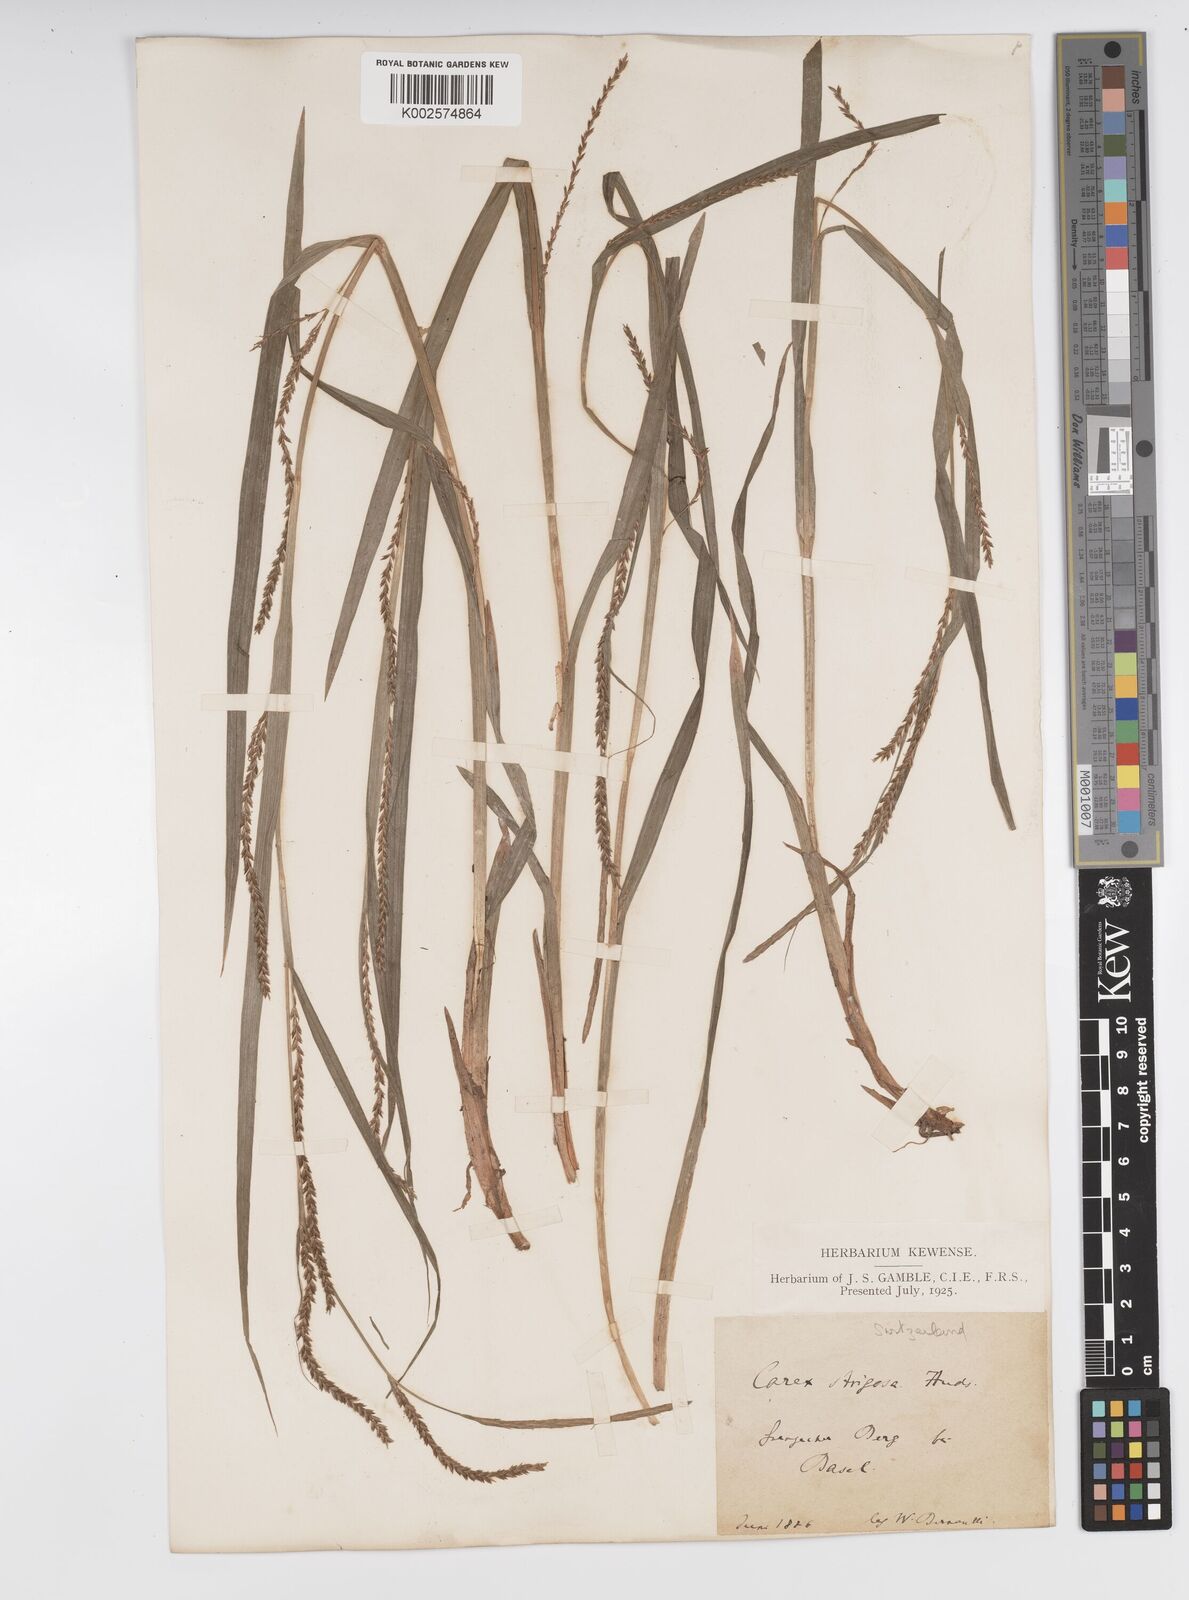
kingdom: Plantae
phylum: Tracheophyta
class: Liliopsida
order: Poales
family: Cyperaceae
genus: Carex
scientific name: Carex strigosa
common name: Thin-spiked wood-sedge
